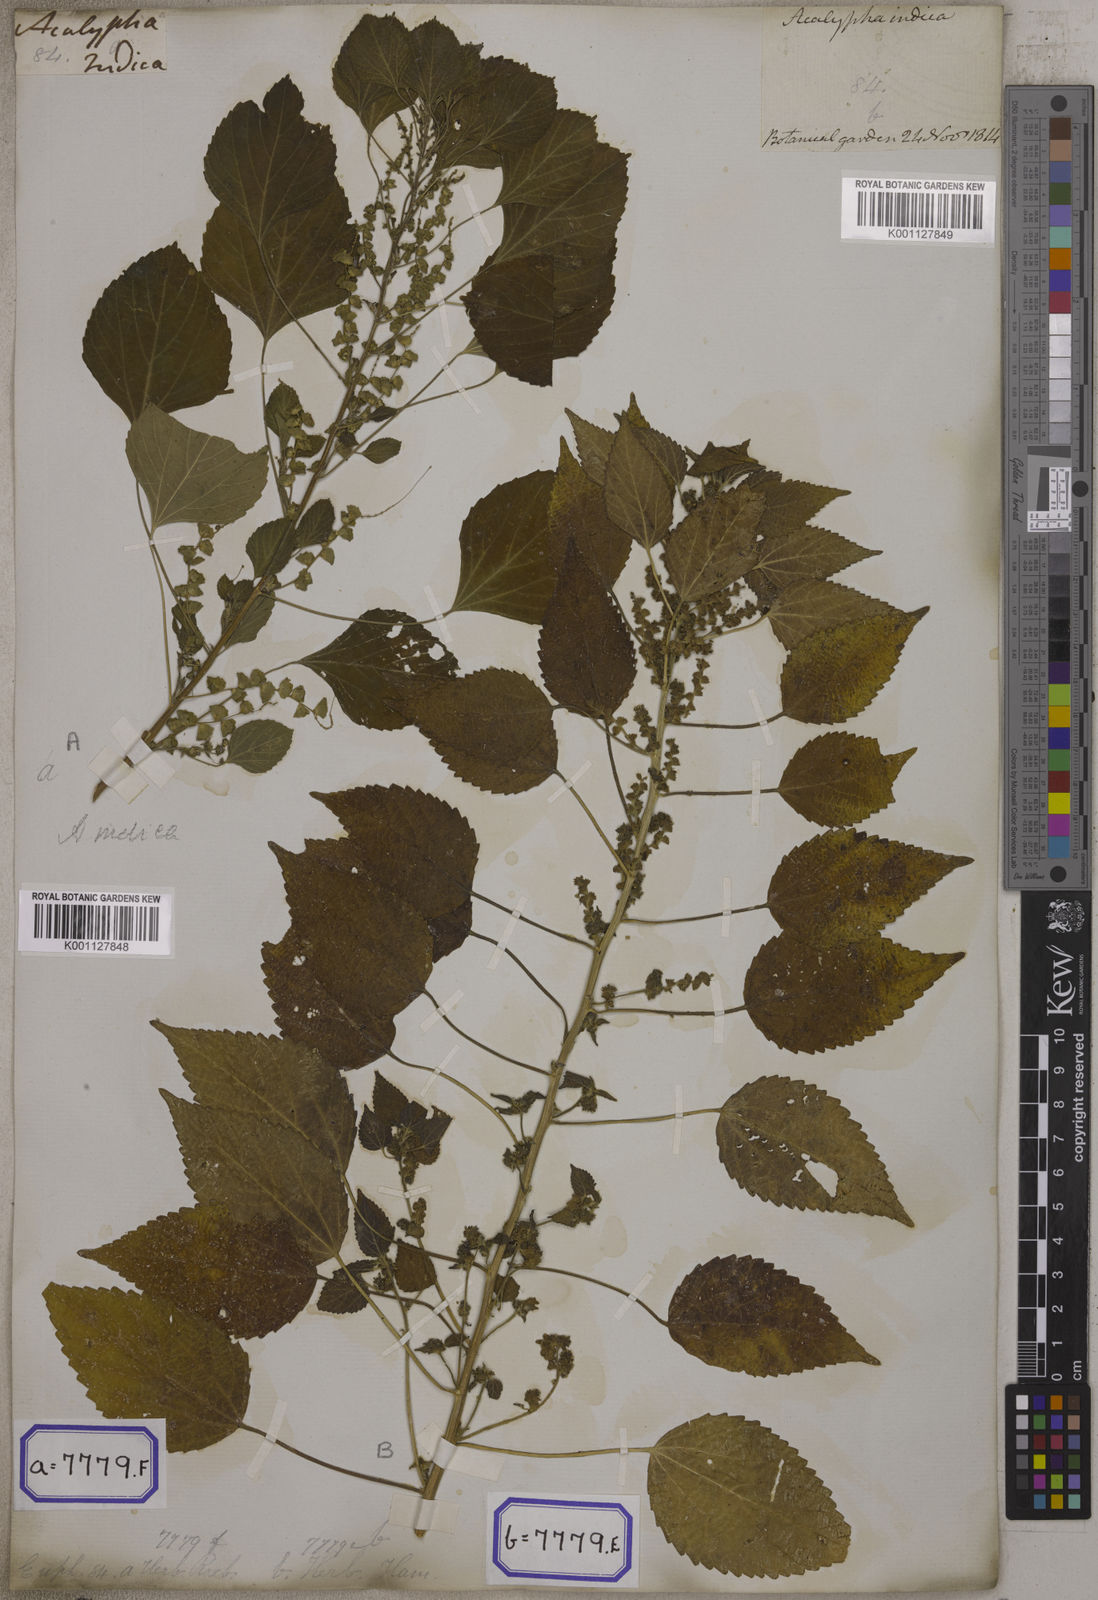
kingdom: Plantae
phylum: Tracheophyta
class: Magnoliopsida
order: Malpighiales
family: Euphorbiaceae
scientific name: Euphorbiaceae
